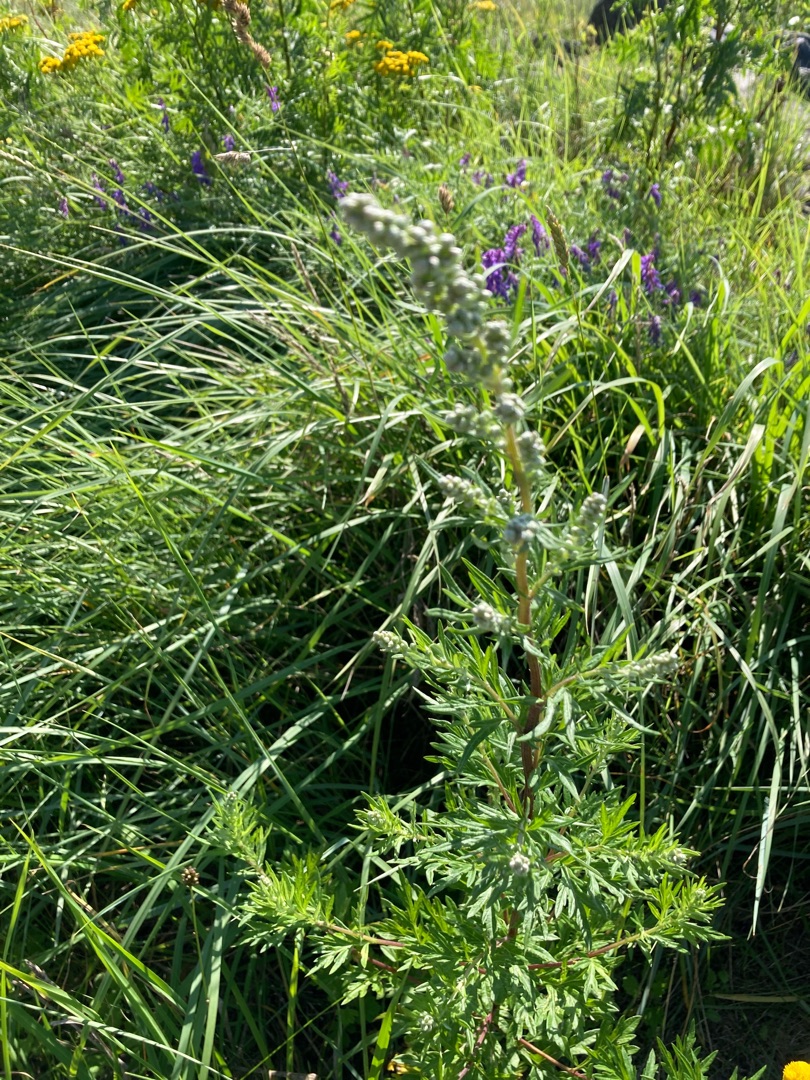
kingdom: Plantae
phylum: Tracheophyta
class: Magnoliopsida
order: Asterales
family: Asteraceae
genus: Artemisia
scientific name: Artemisia vulgaris
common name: Grå-bynke
